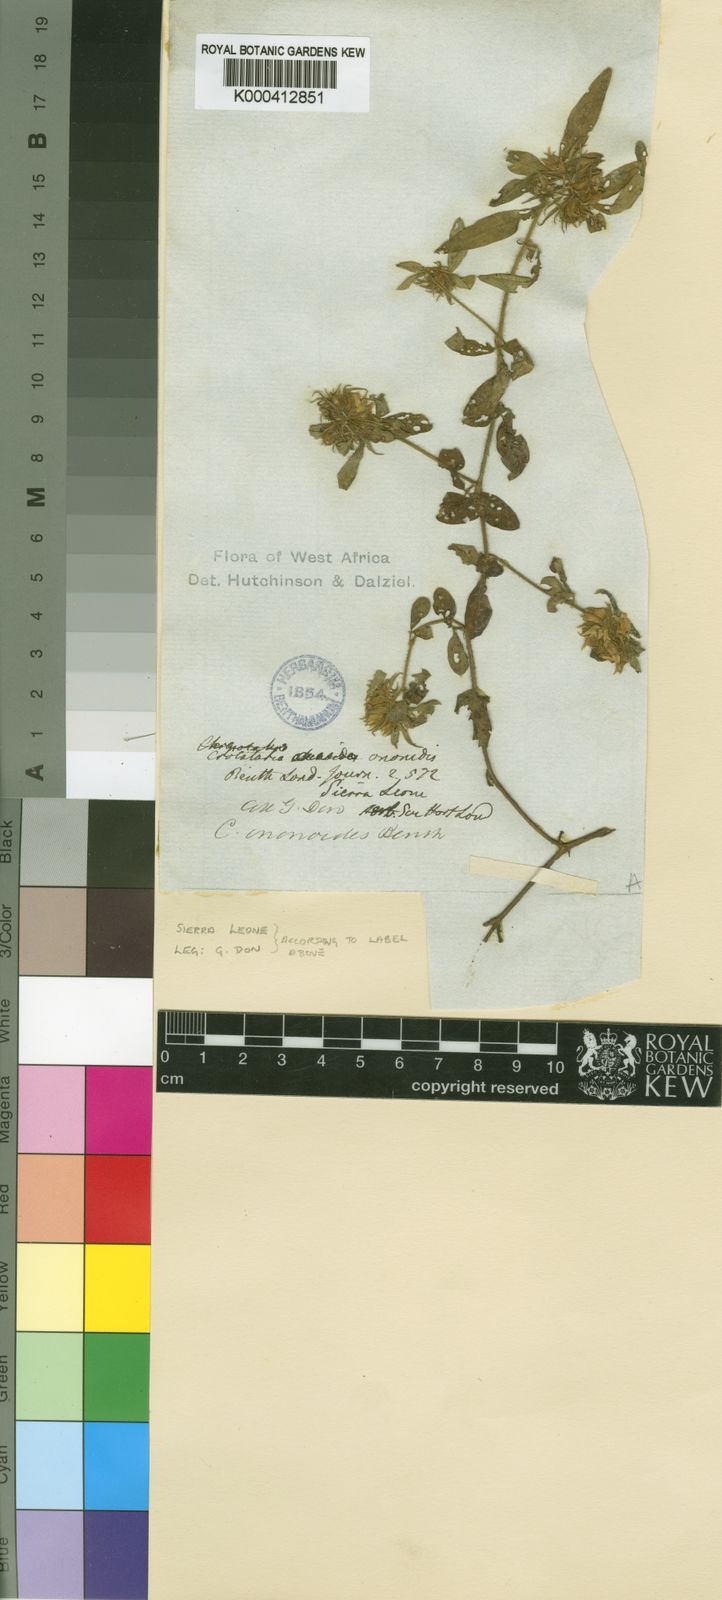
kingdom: Plantae
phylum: Tracheophyta
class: Magnoliopsida
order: Fabales
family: Fabaceae
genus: Crotalaria
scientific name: Crotalaria ononoides
